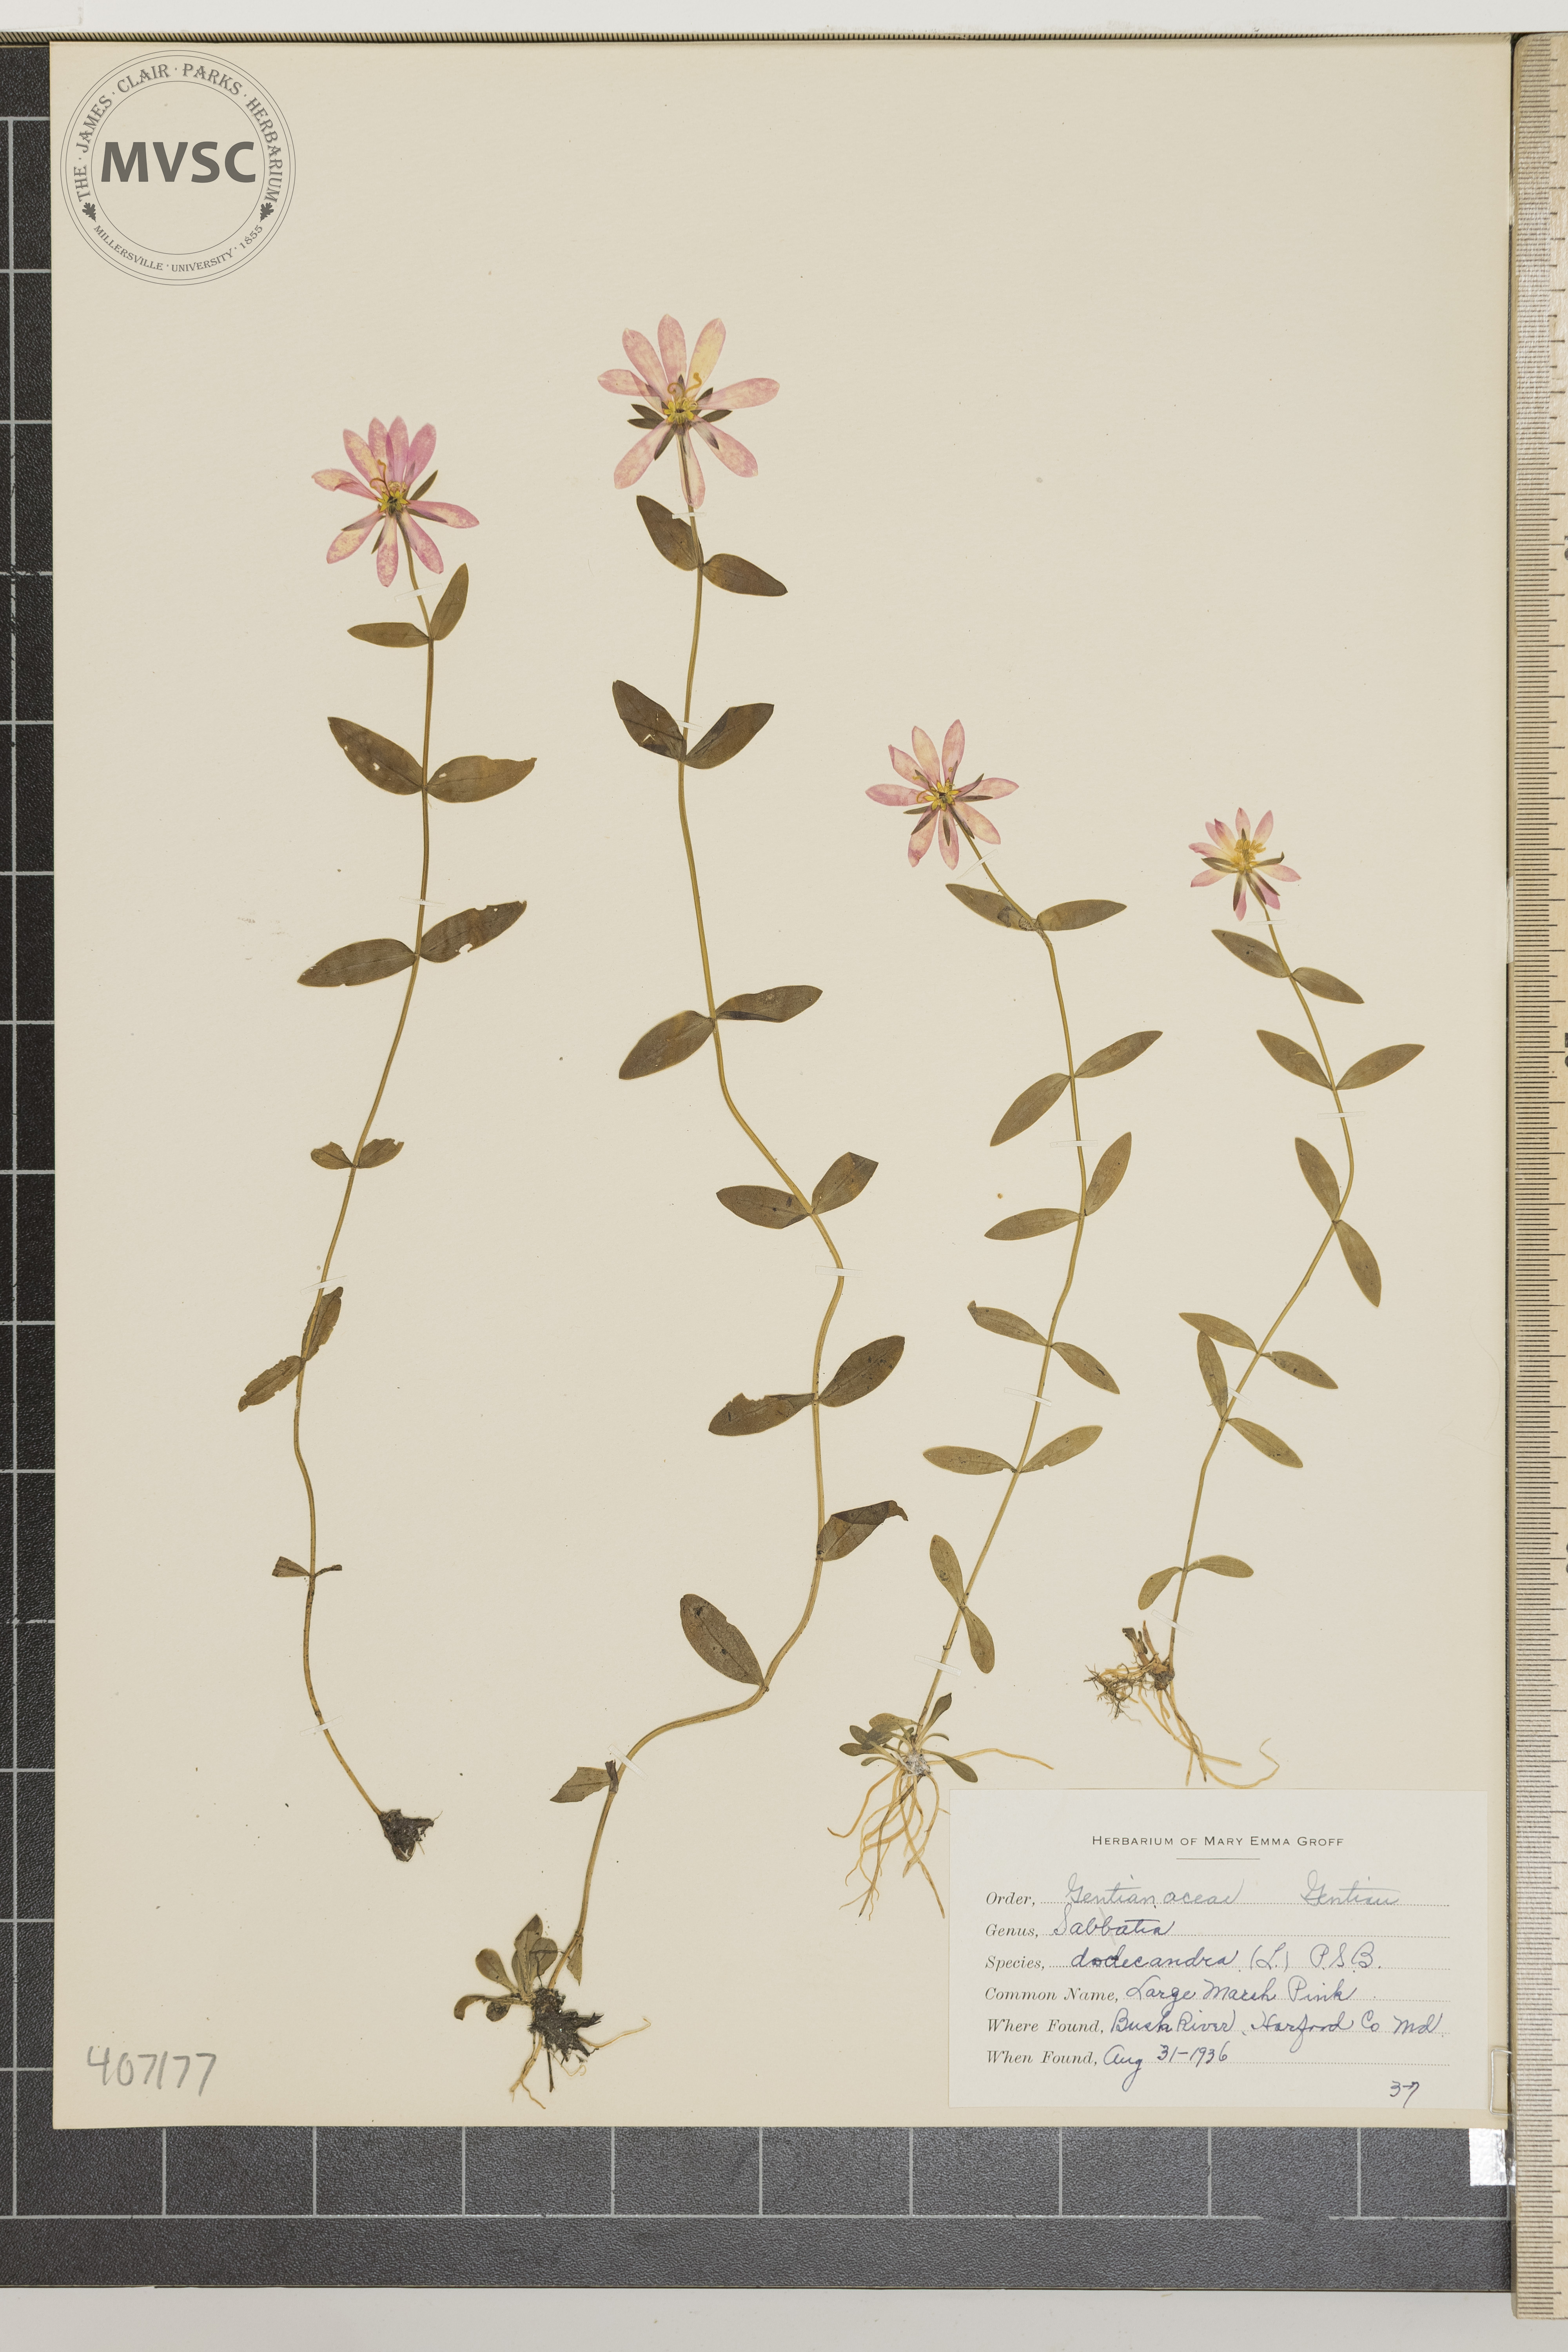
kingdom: Plantae
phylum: Tracheophyta
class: Magnoliopsida
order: Gentianales
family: Gentianaceae
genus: Sabatia
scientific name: Sabatia dodecandra
